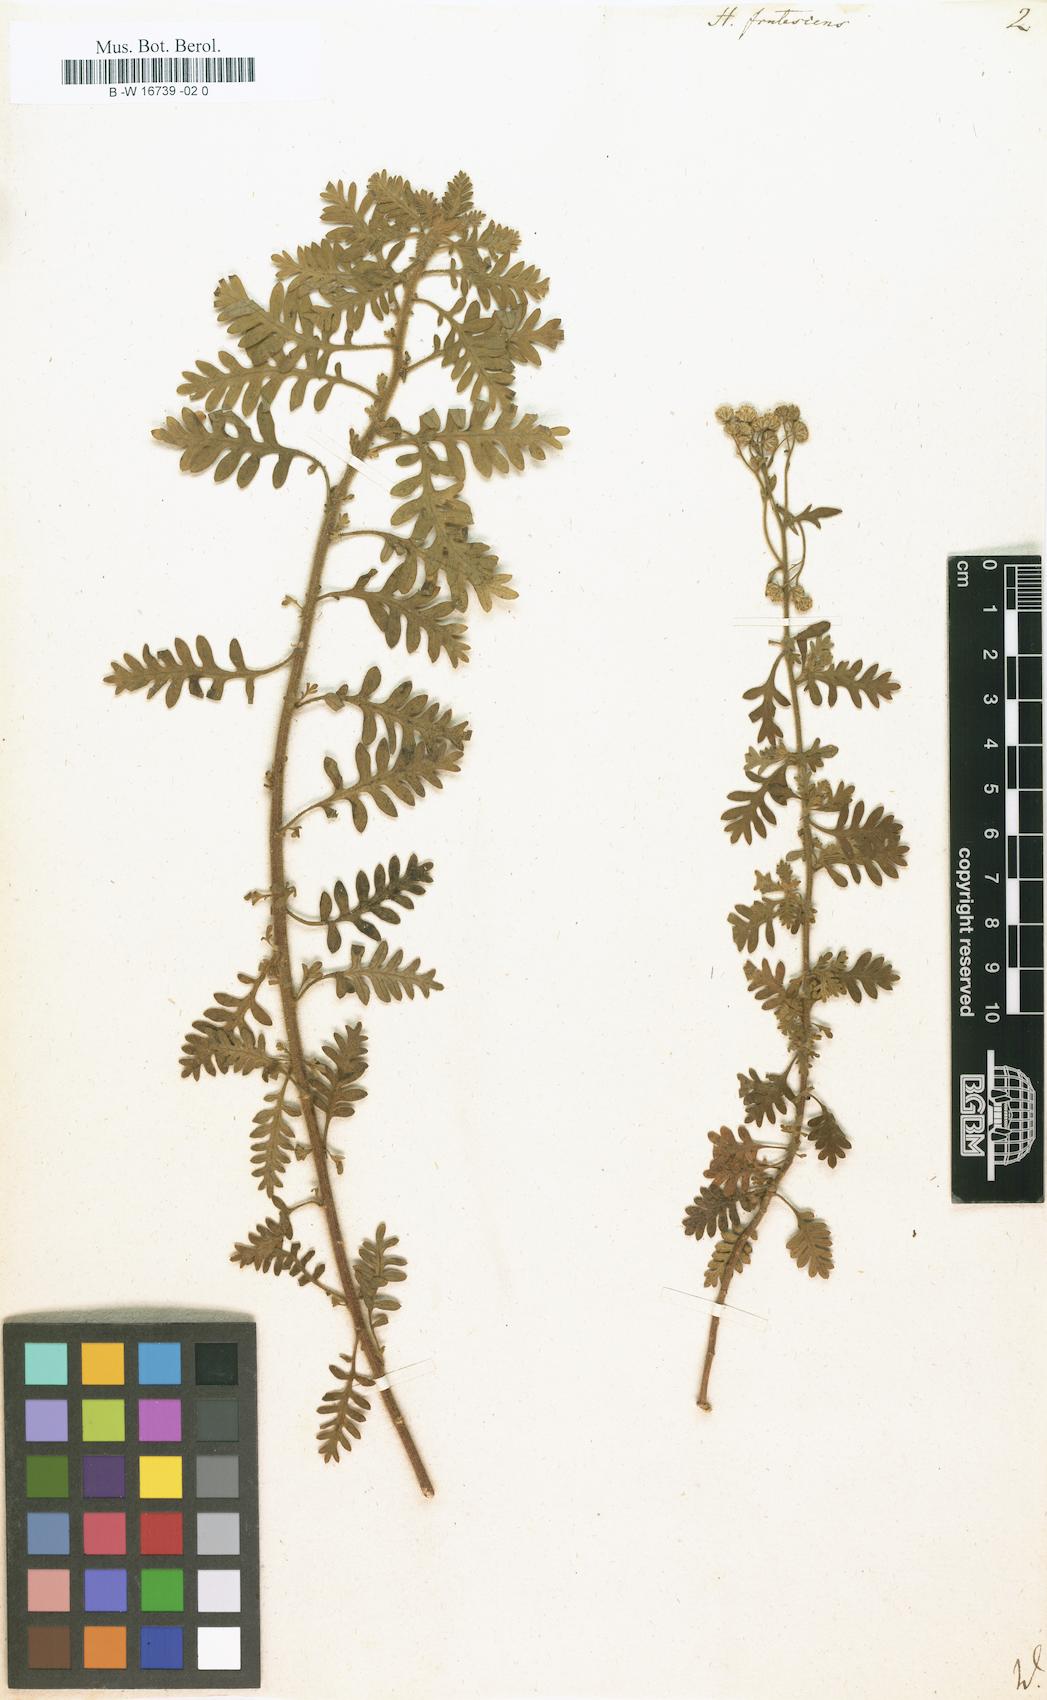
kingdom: Plantae
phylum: Tracheophyta
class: Magnoliopsida
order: Asterales
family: Asteraceae
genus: Hippia
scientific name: Hippia frutescens
